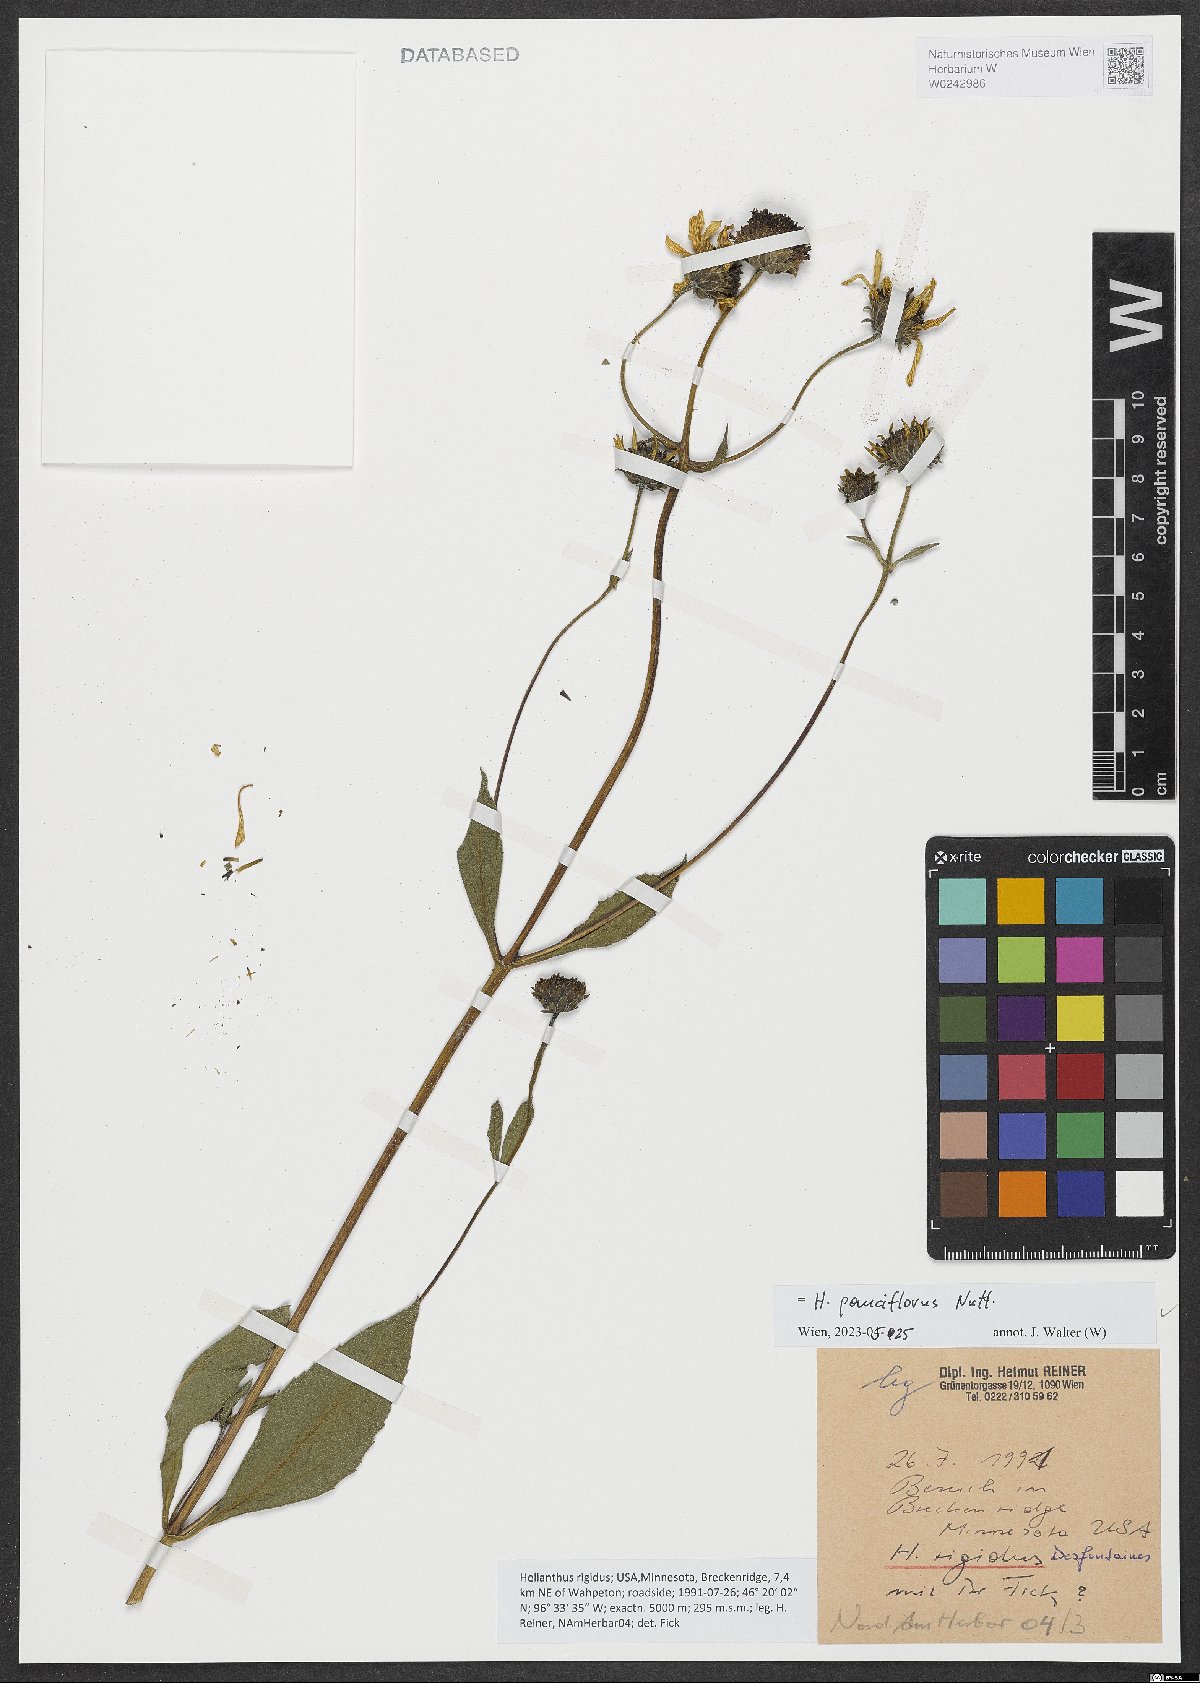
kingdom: Plantae
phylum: Tracheophyta
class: Magnoliopsida
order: Asterales
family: Asteraceae
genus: Helianthus
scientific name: Helianthus pauciflorus
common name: Stiff sunflower
